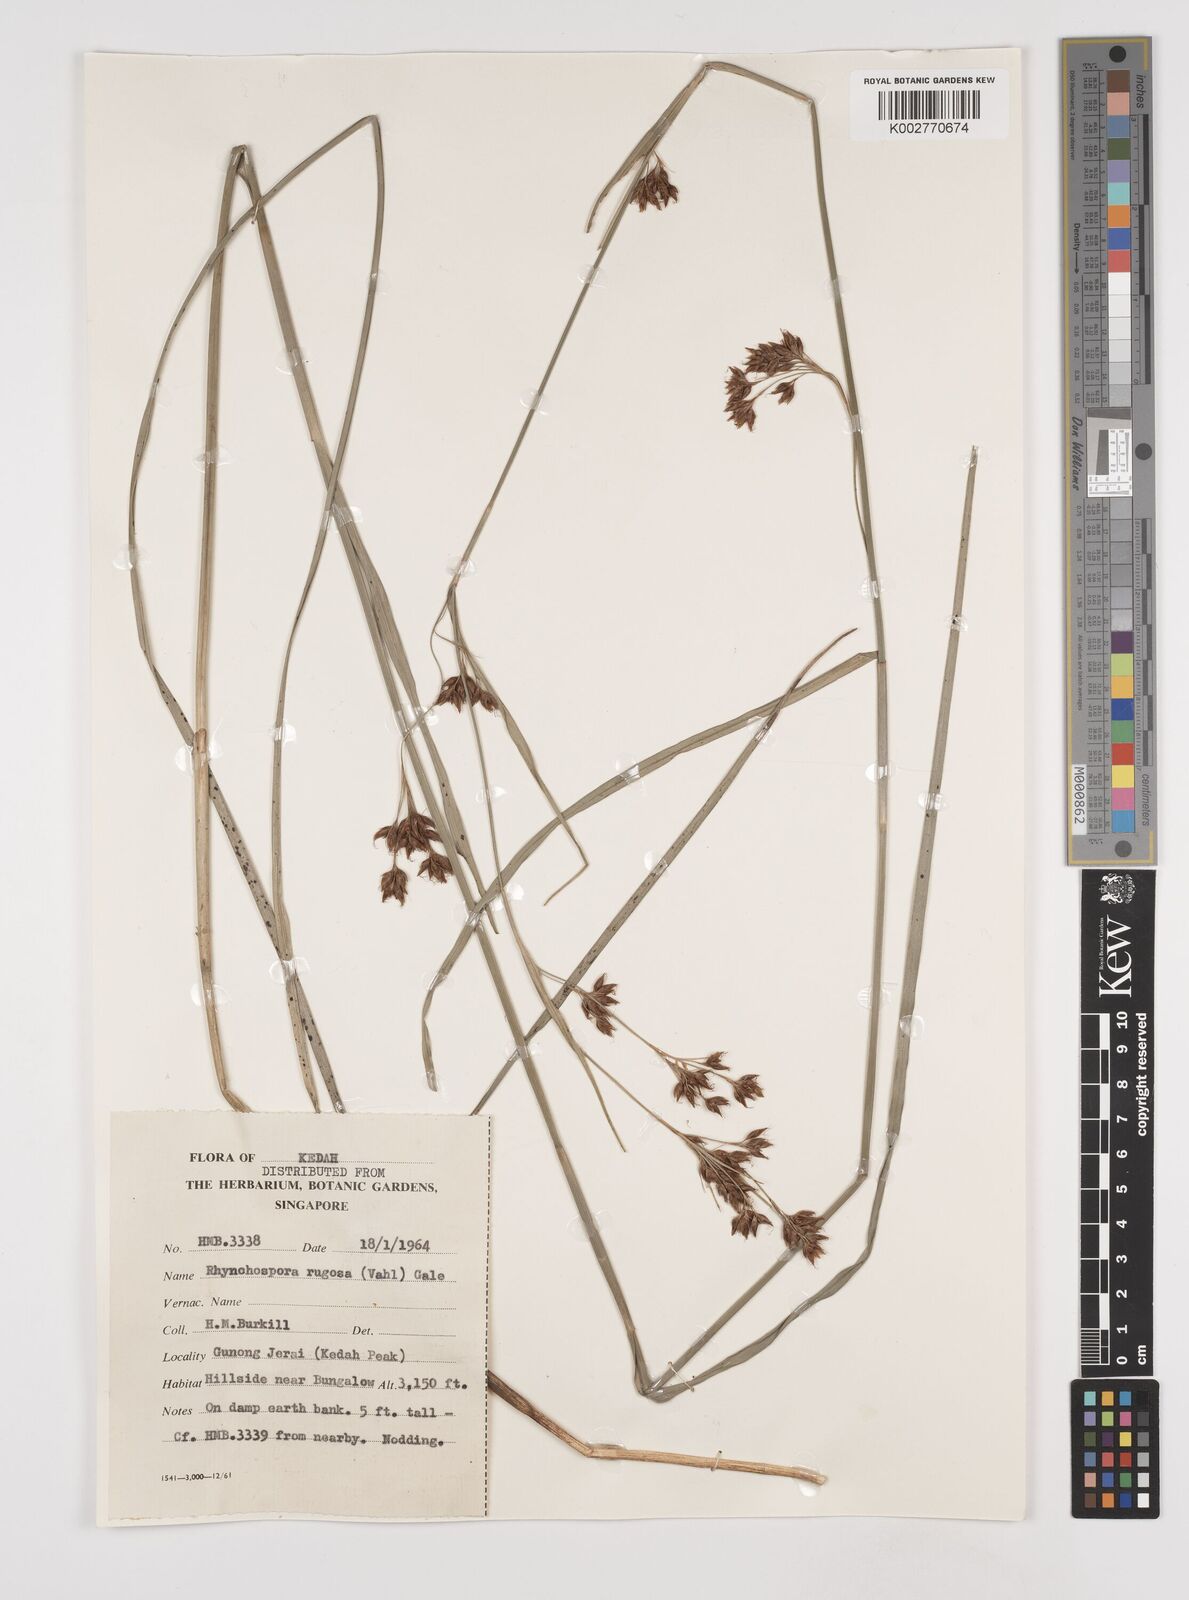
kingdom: Plantae
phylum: Tracheophyta
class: Liliopsida
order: Poales
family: Cyperaceae
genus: Rhynchospora
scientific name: Rhynchospora rugosa
